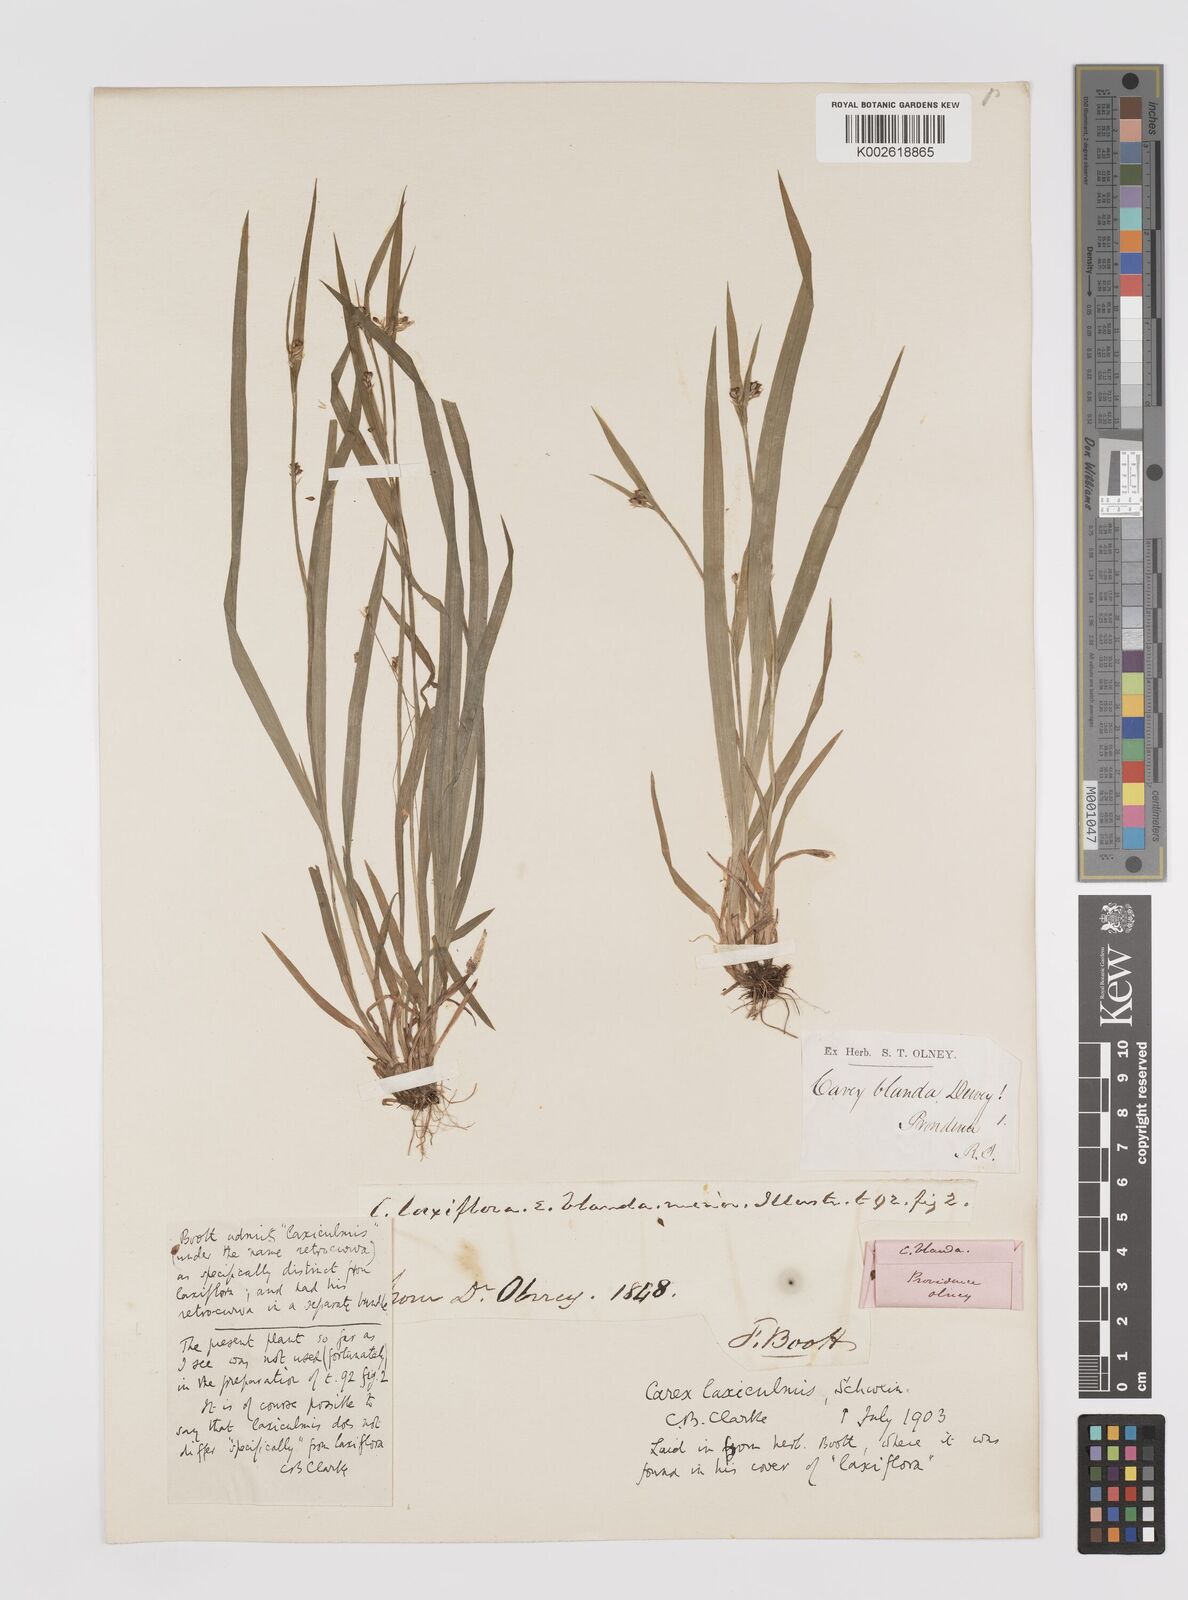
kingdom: Plantae
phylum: Tracheophyta
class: Liliopsida
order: Poales
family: Cyperaceae
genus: Carex
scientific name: Carex laxiculmis
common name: Spreading sedge
